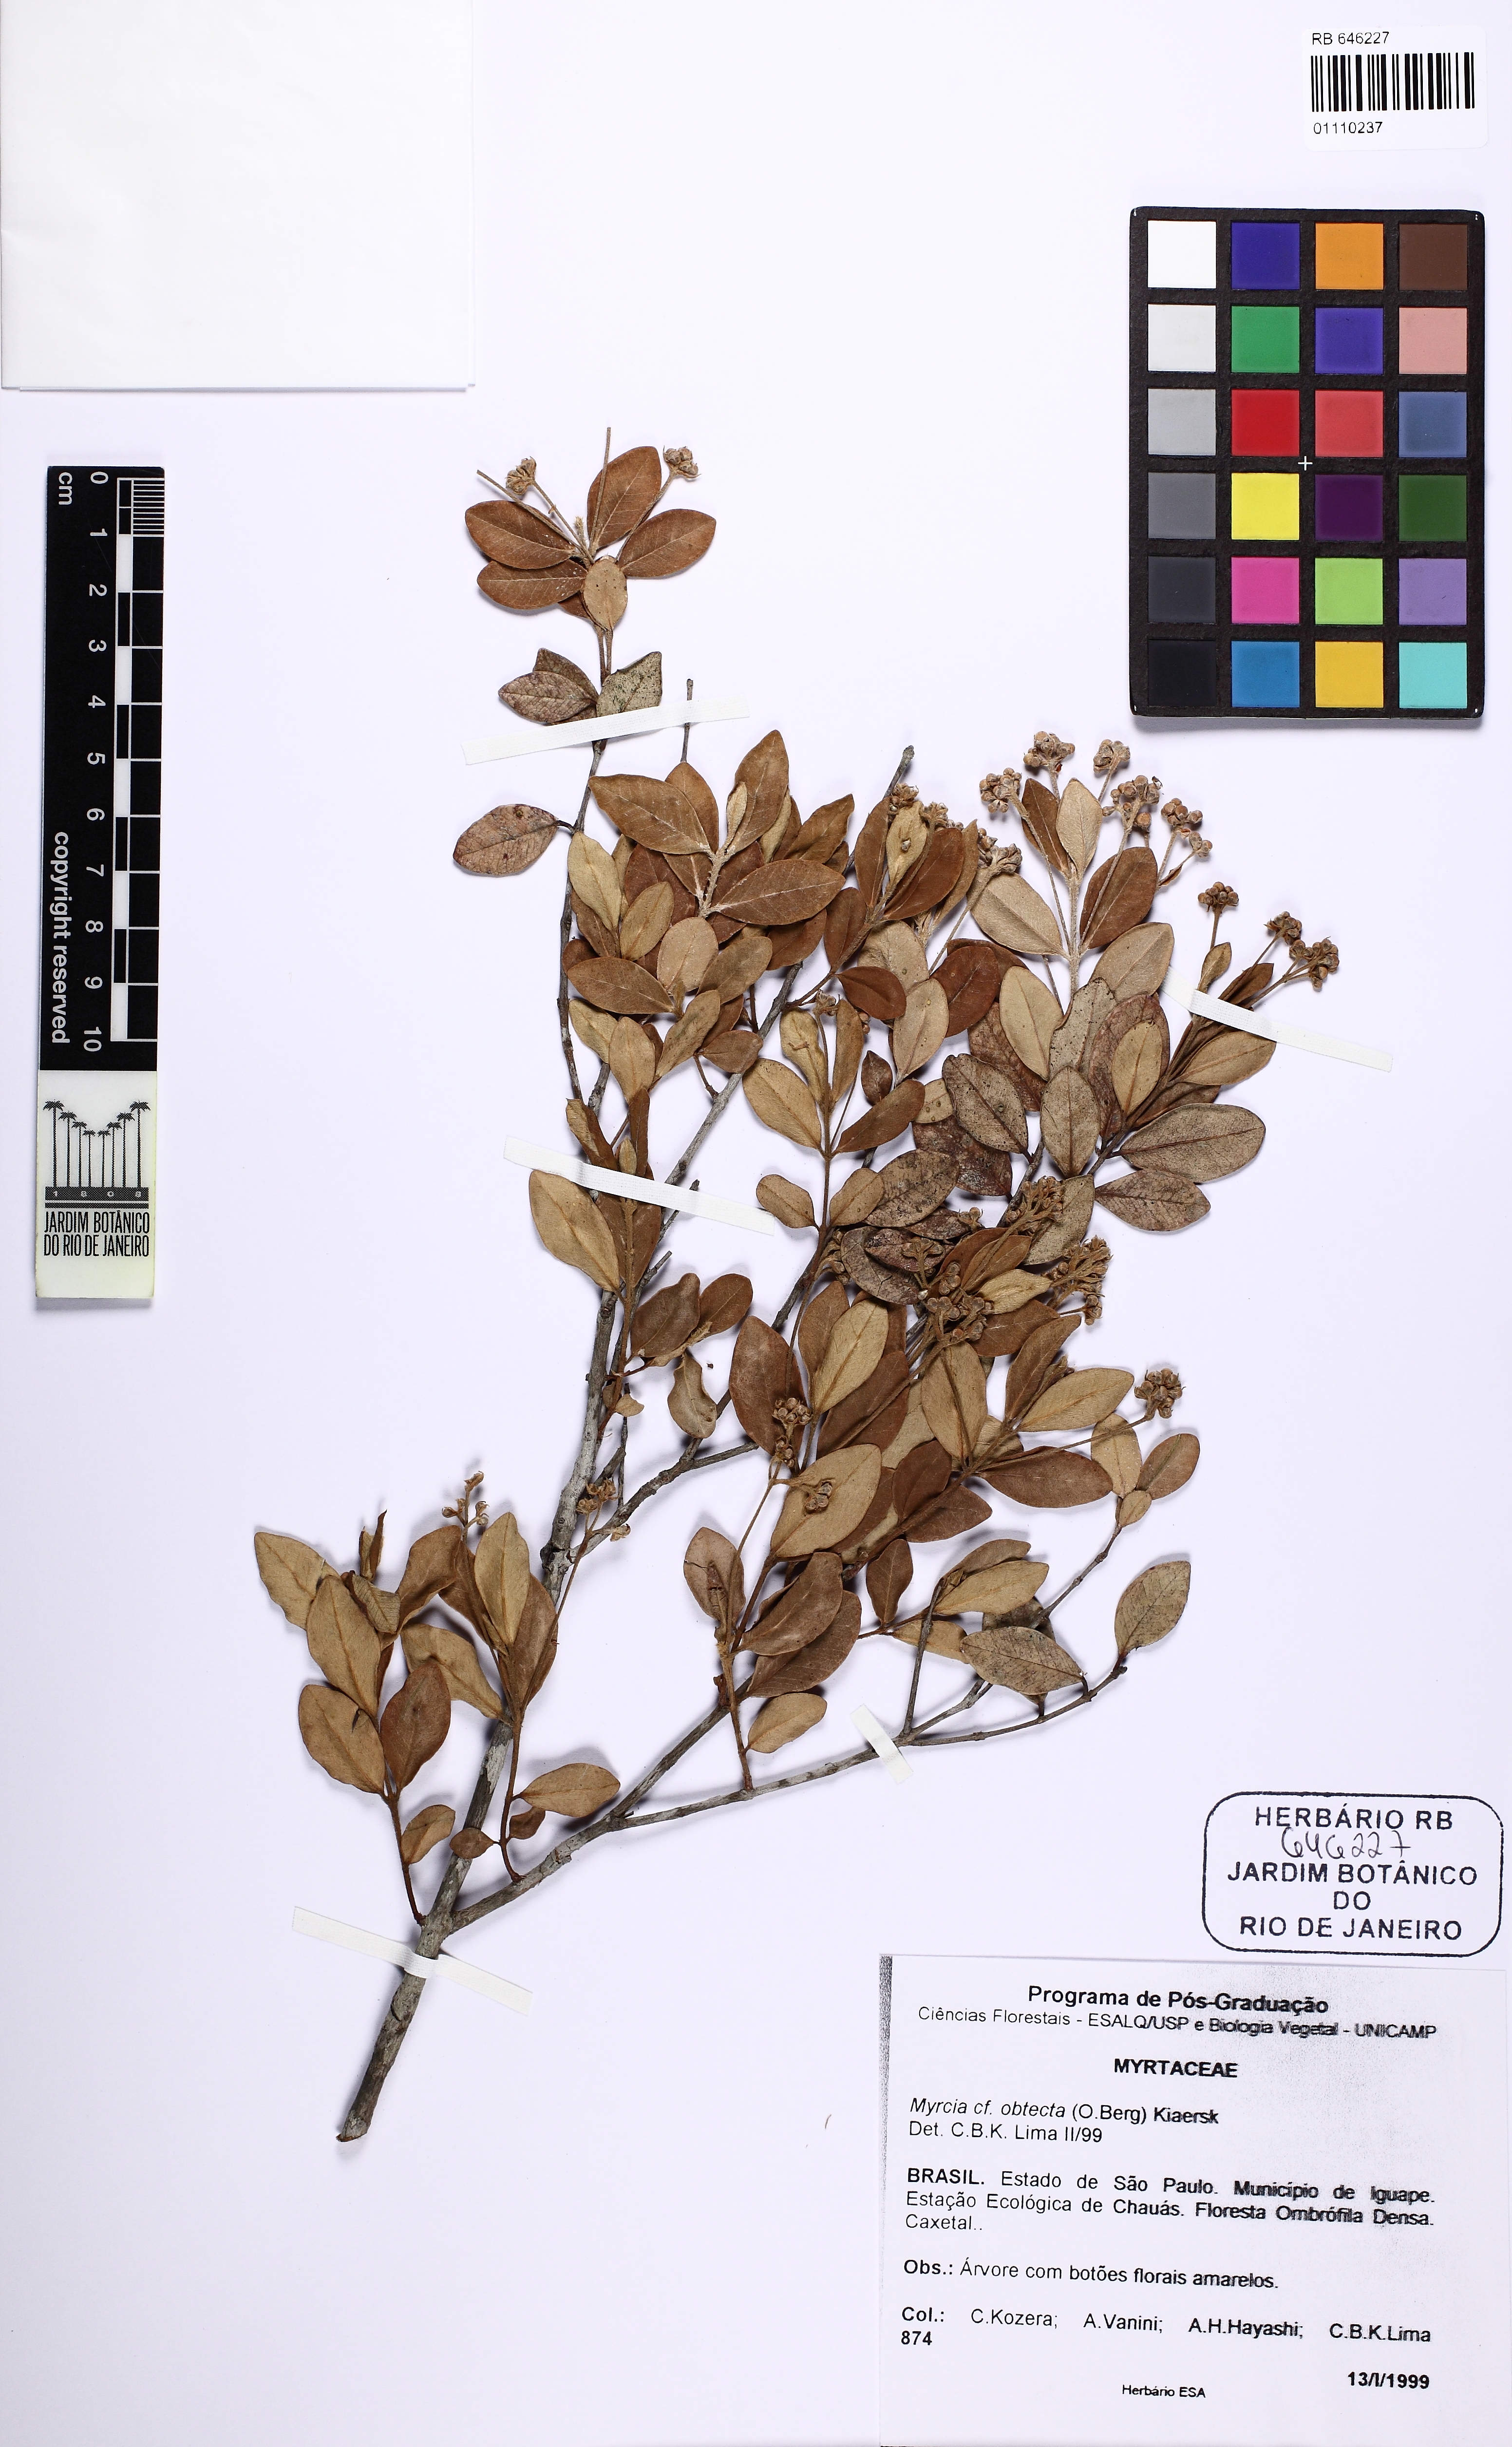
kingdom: Plantae
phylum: Tracheophyta
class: Magnoliopsida
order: Myrtales
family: Myrtaceae
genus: Myrcia
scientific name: Myrcia palustris
